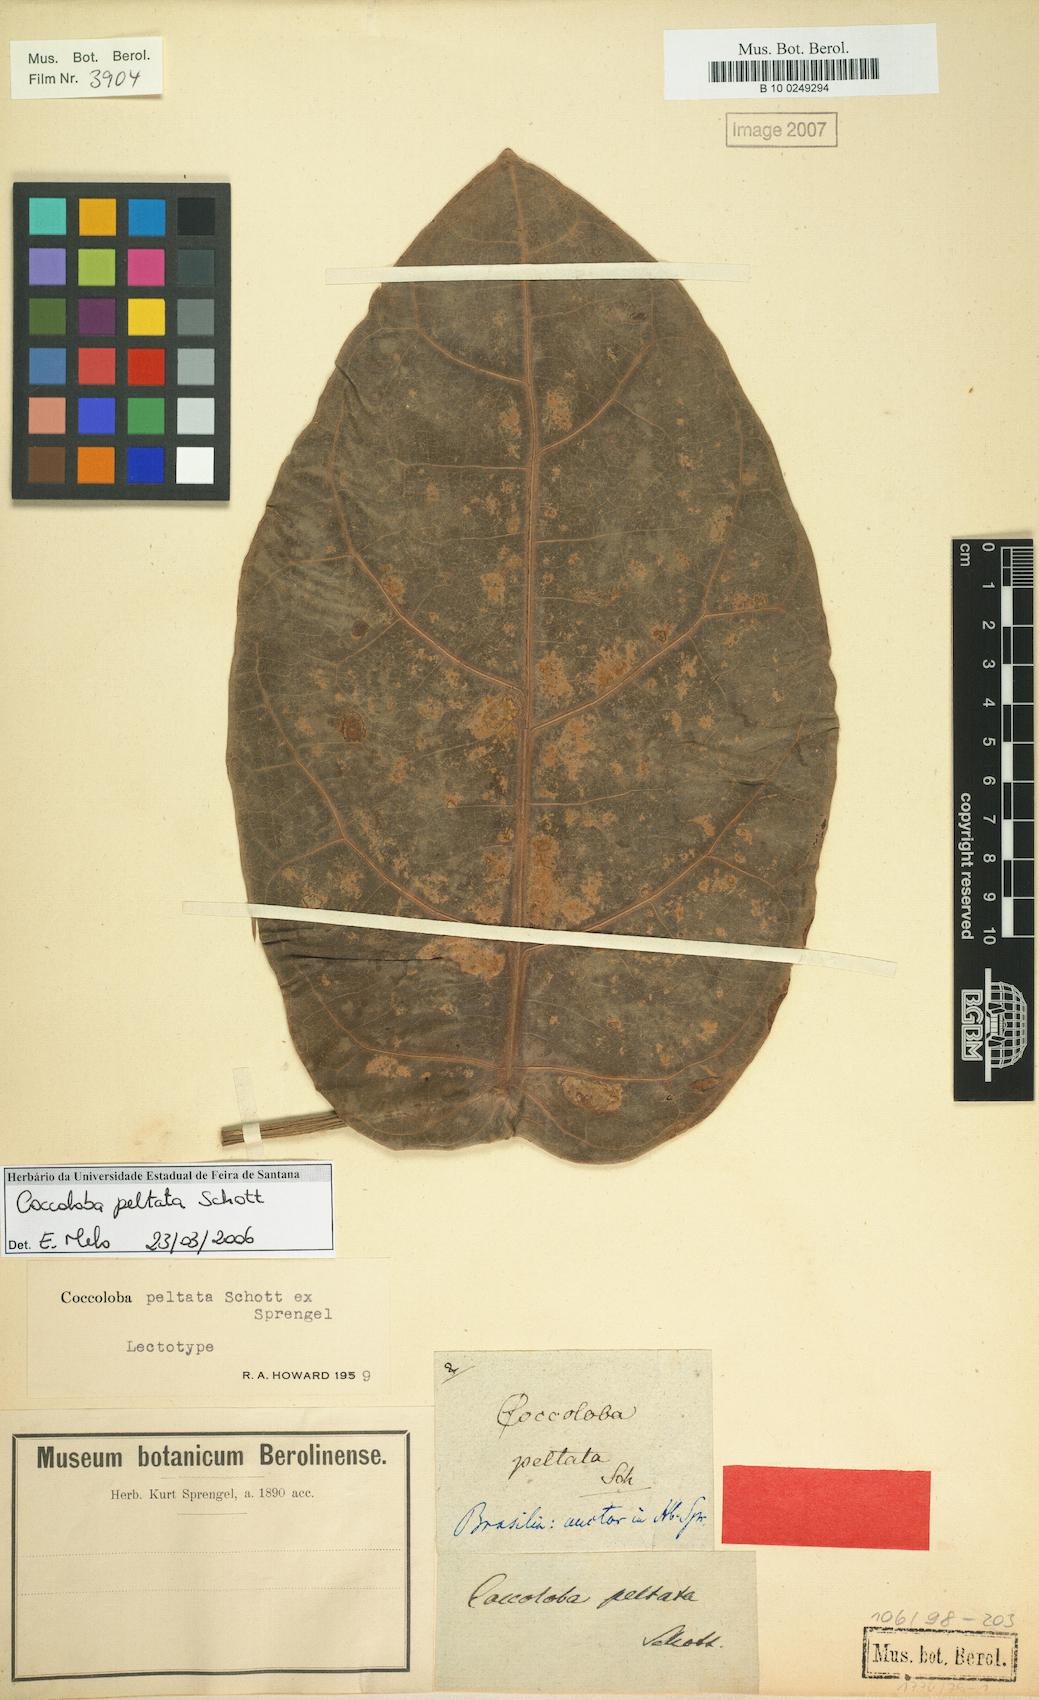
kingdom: Plantae
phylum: Tracheophyta
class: Magnoliopsida
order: Caryophyllales
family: Polygonaceae
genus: Coccoloba
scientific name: Coccoloba peltata
